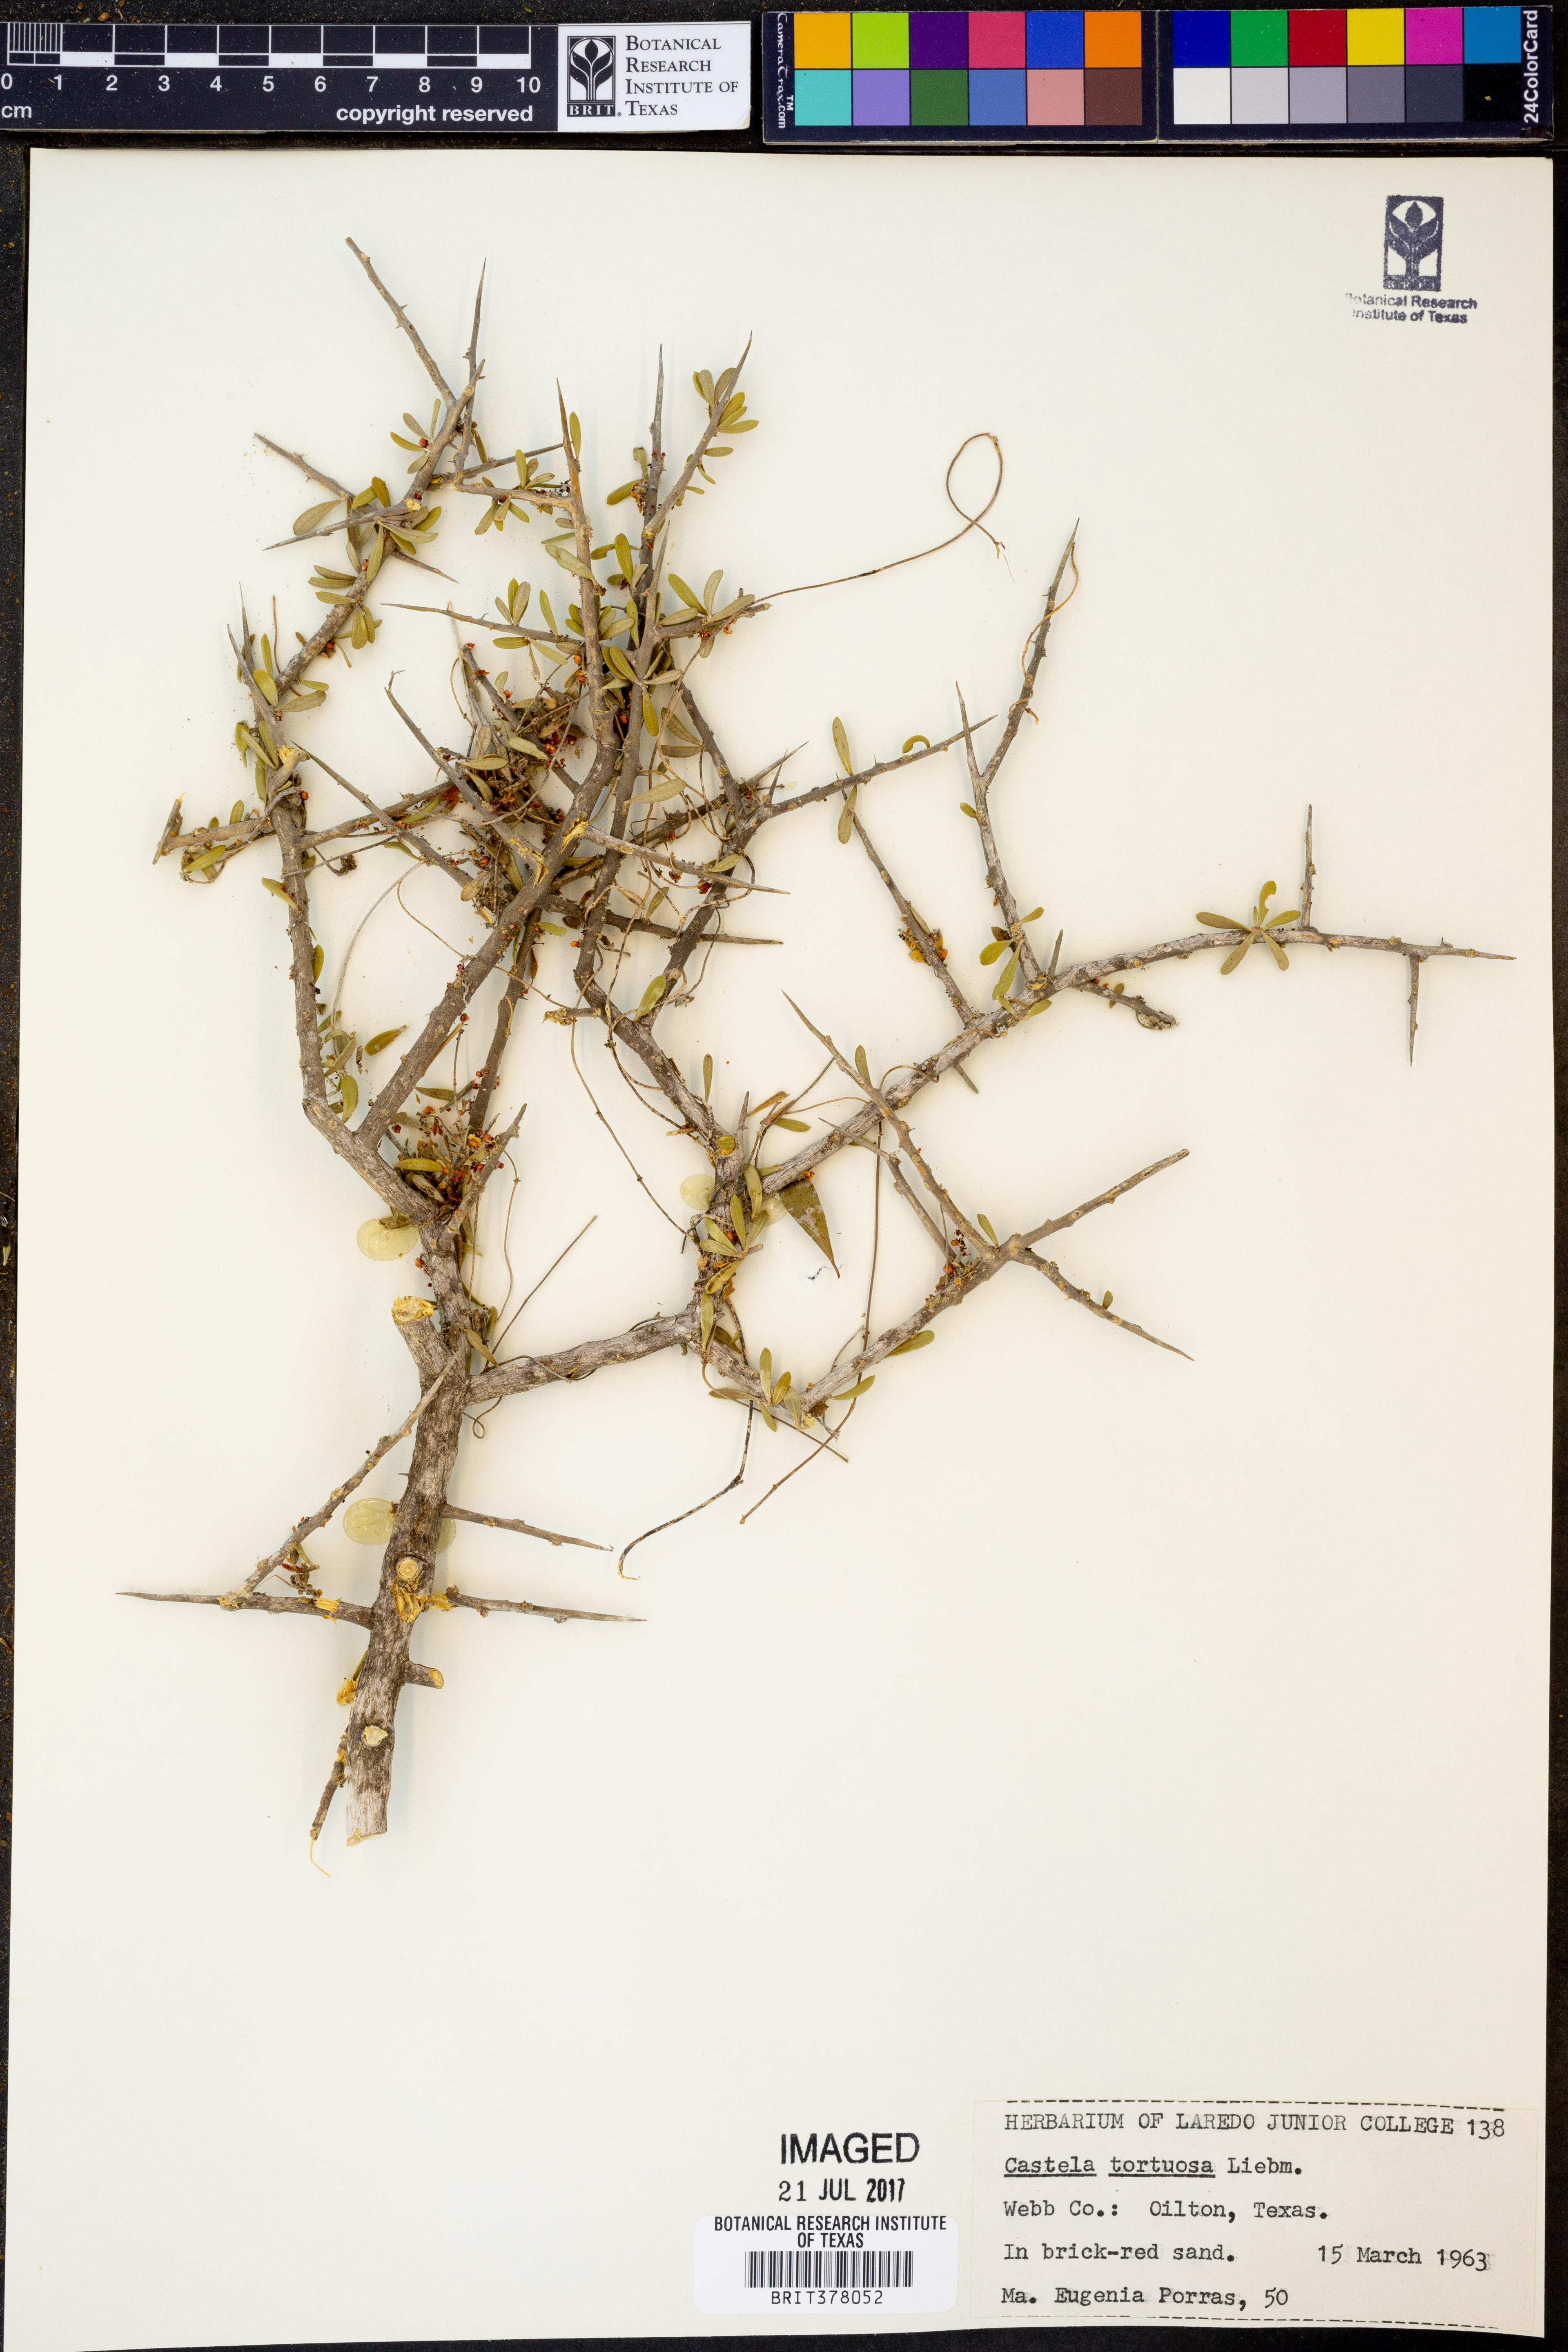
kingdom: Plantae
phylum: Tracheophyta
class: Magnoliopsida
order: Sapindales
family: Simaroubaceae
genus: Castela
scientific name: Castela tortuosa
